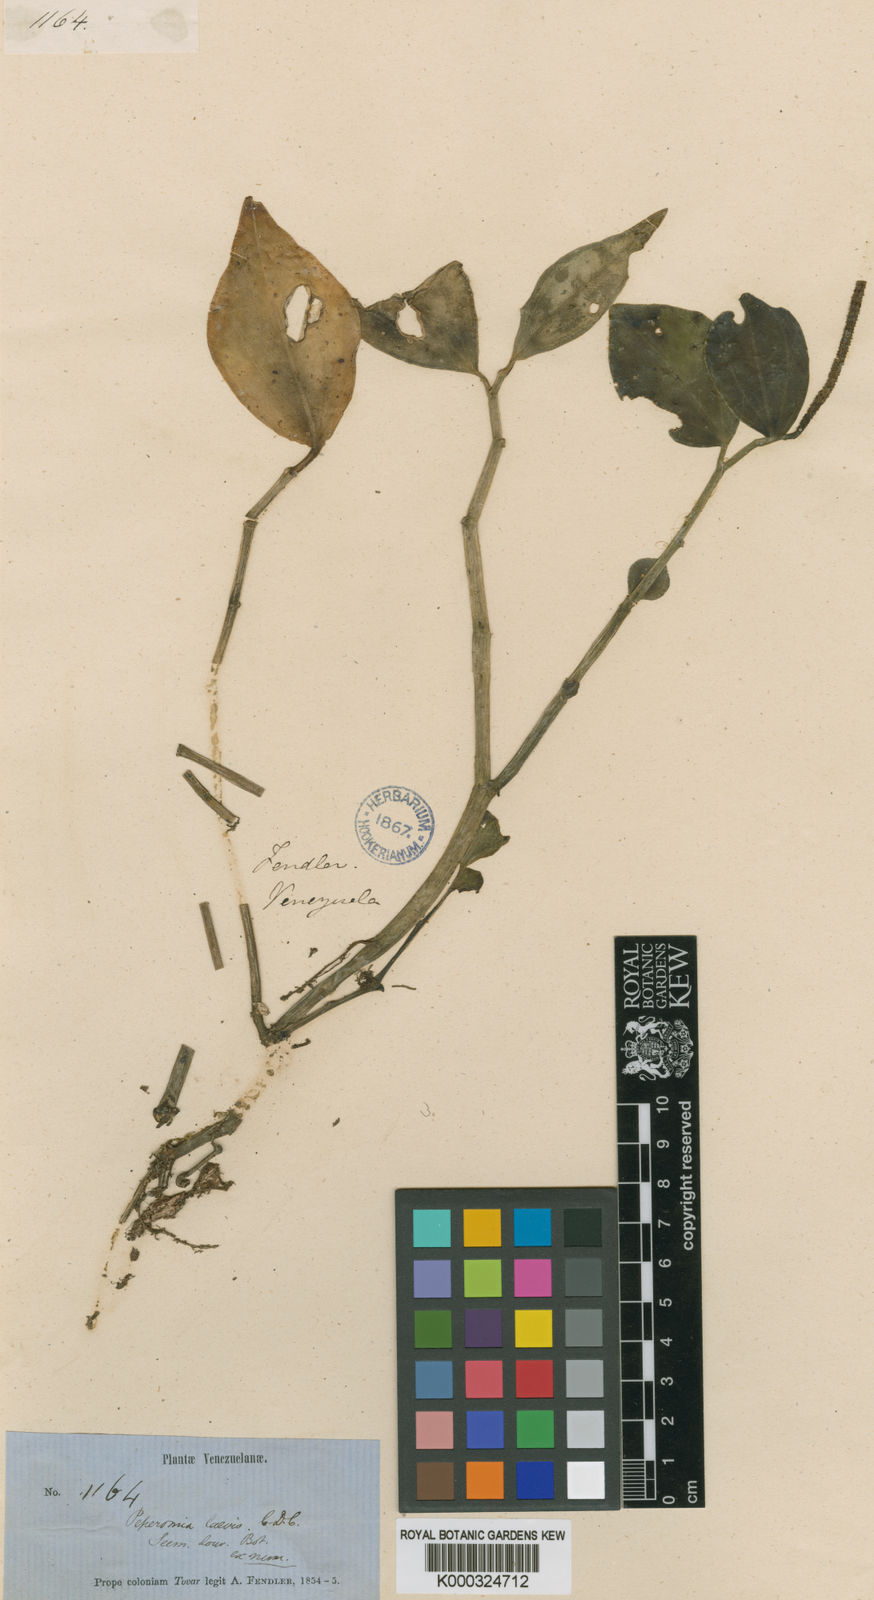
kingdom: Plantae
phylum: Tracheophyta
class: Magnoliopsida
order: Piperales
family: Piperaceae
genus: Peperomia
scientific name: Peperomia
